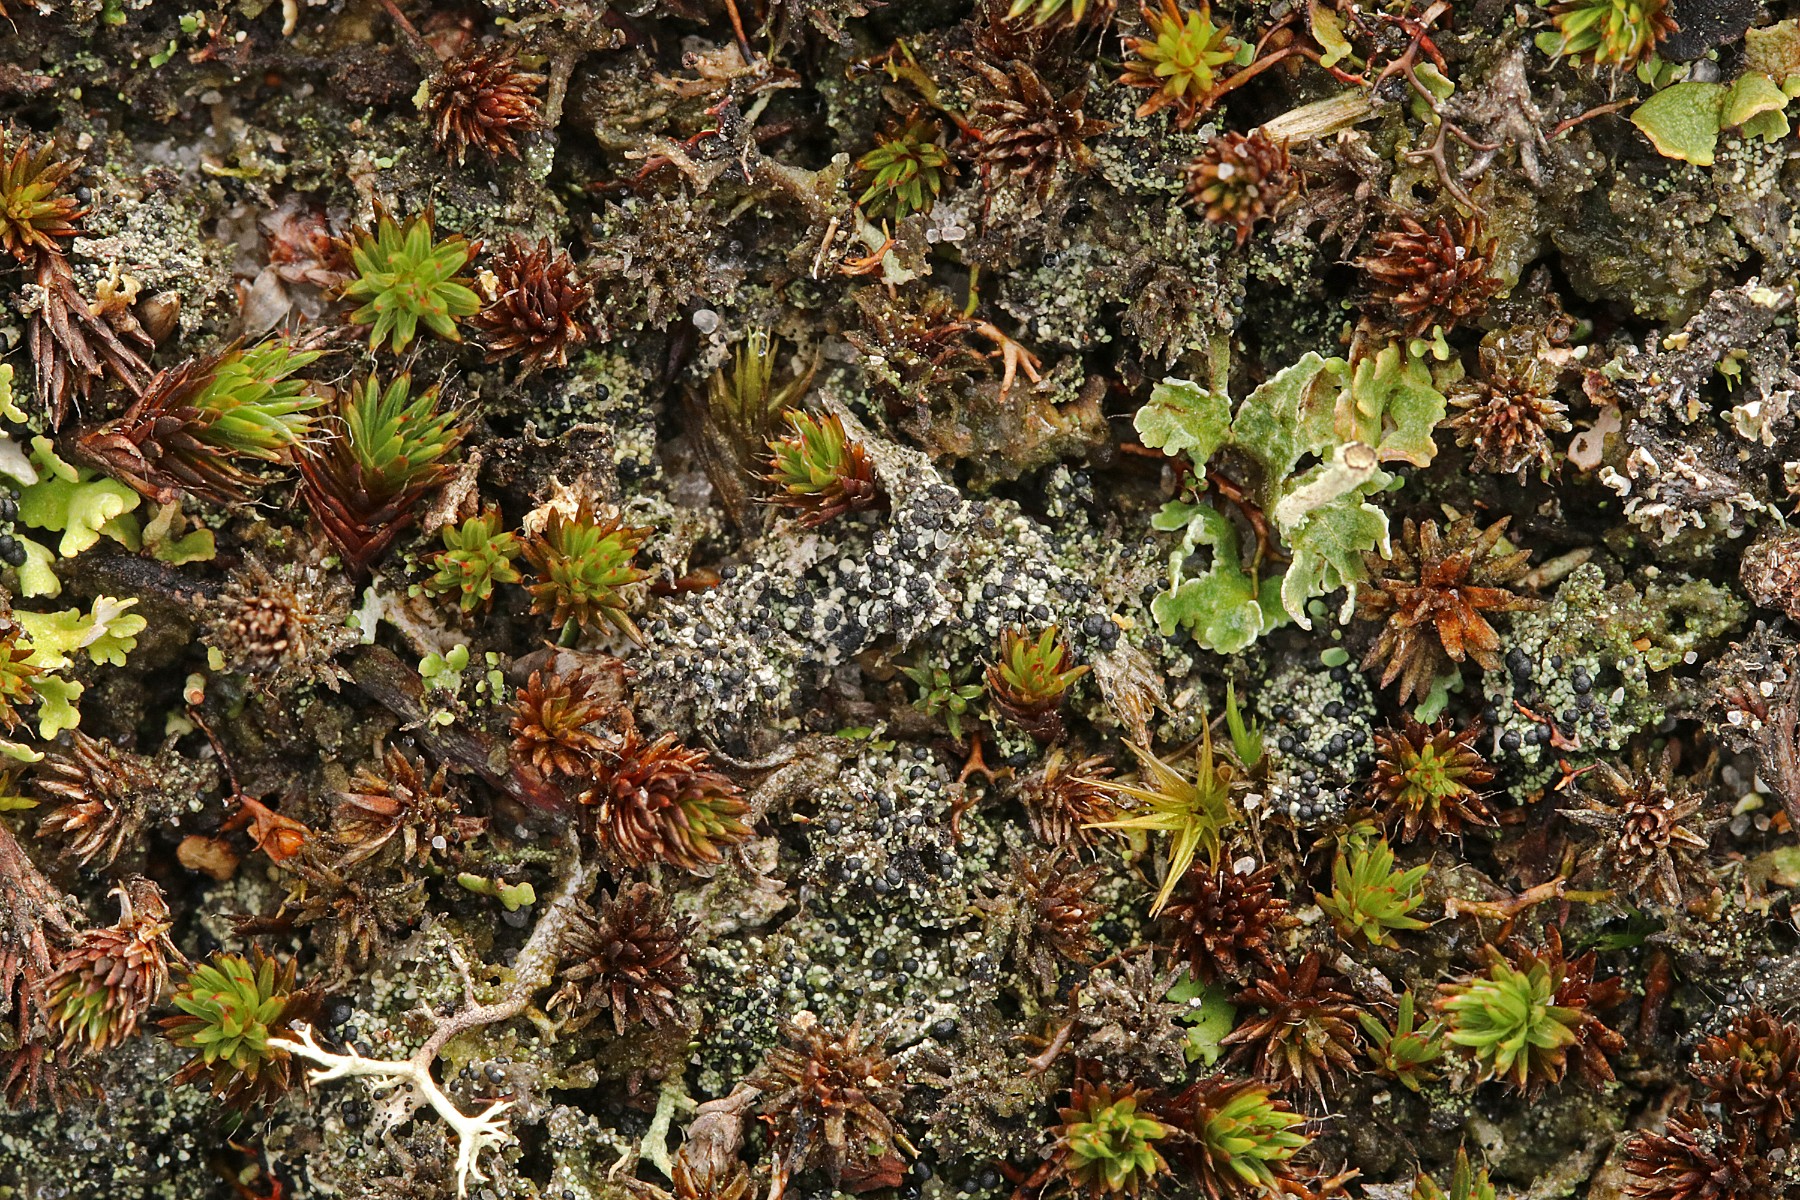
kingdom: Fungi
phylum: Ascomycota
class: Lecanoromycetes
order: Lecanorales
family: Byssolomataceae
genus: Micarea
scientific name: Micarea lignaria
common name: tørve-knaplav
